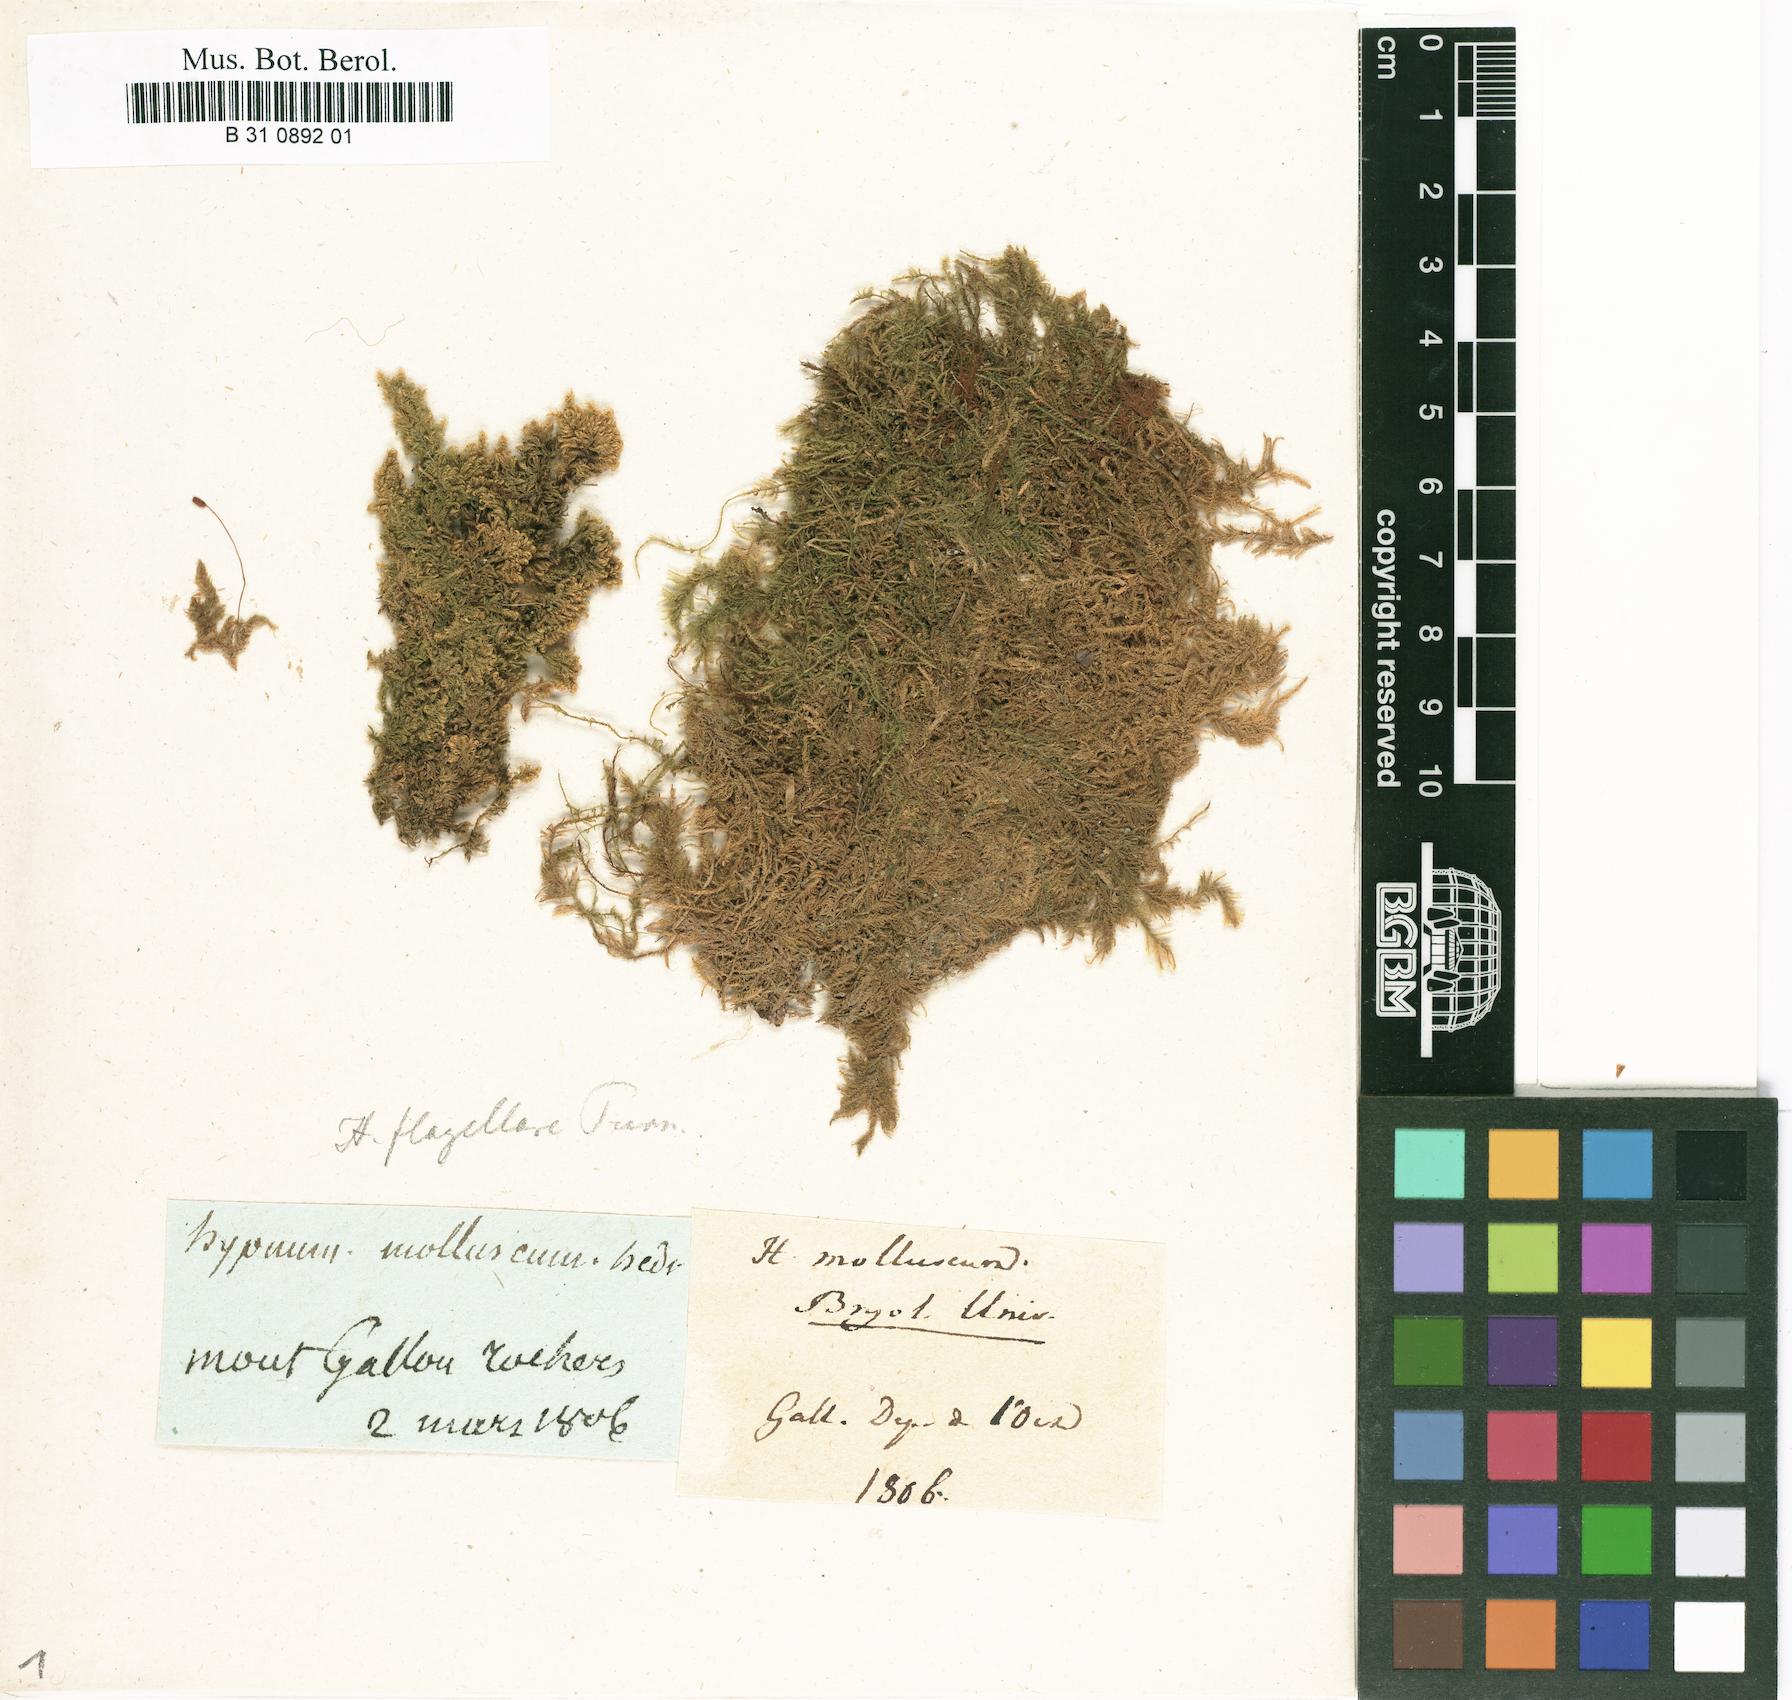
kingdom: Plantae
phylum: Bryophyta
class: Bryopsida
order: Hypnales
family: Myuriaceae
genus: Ctenidium
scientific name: Ctenidium molluscum
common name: Chalk comb-moss
